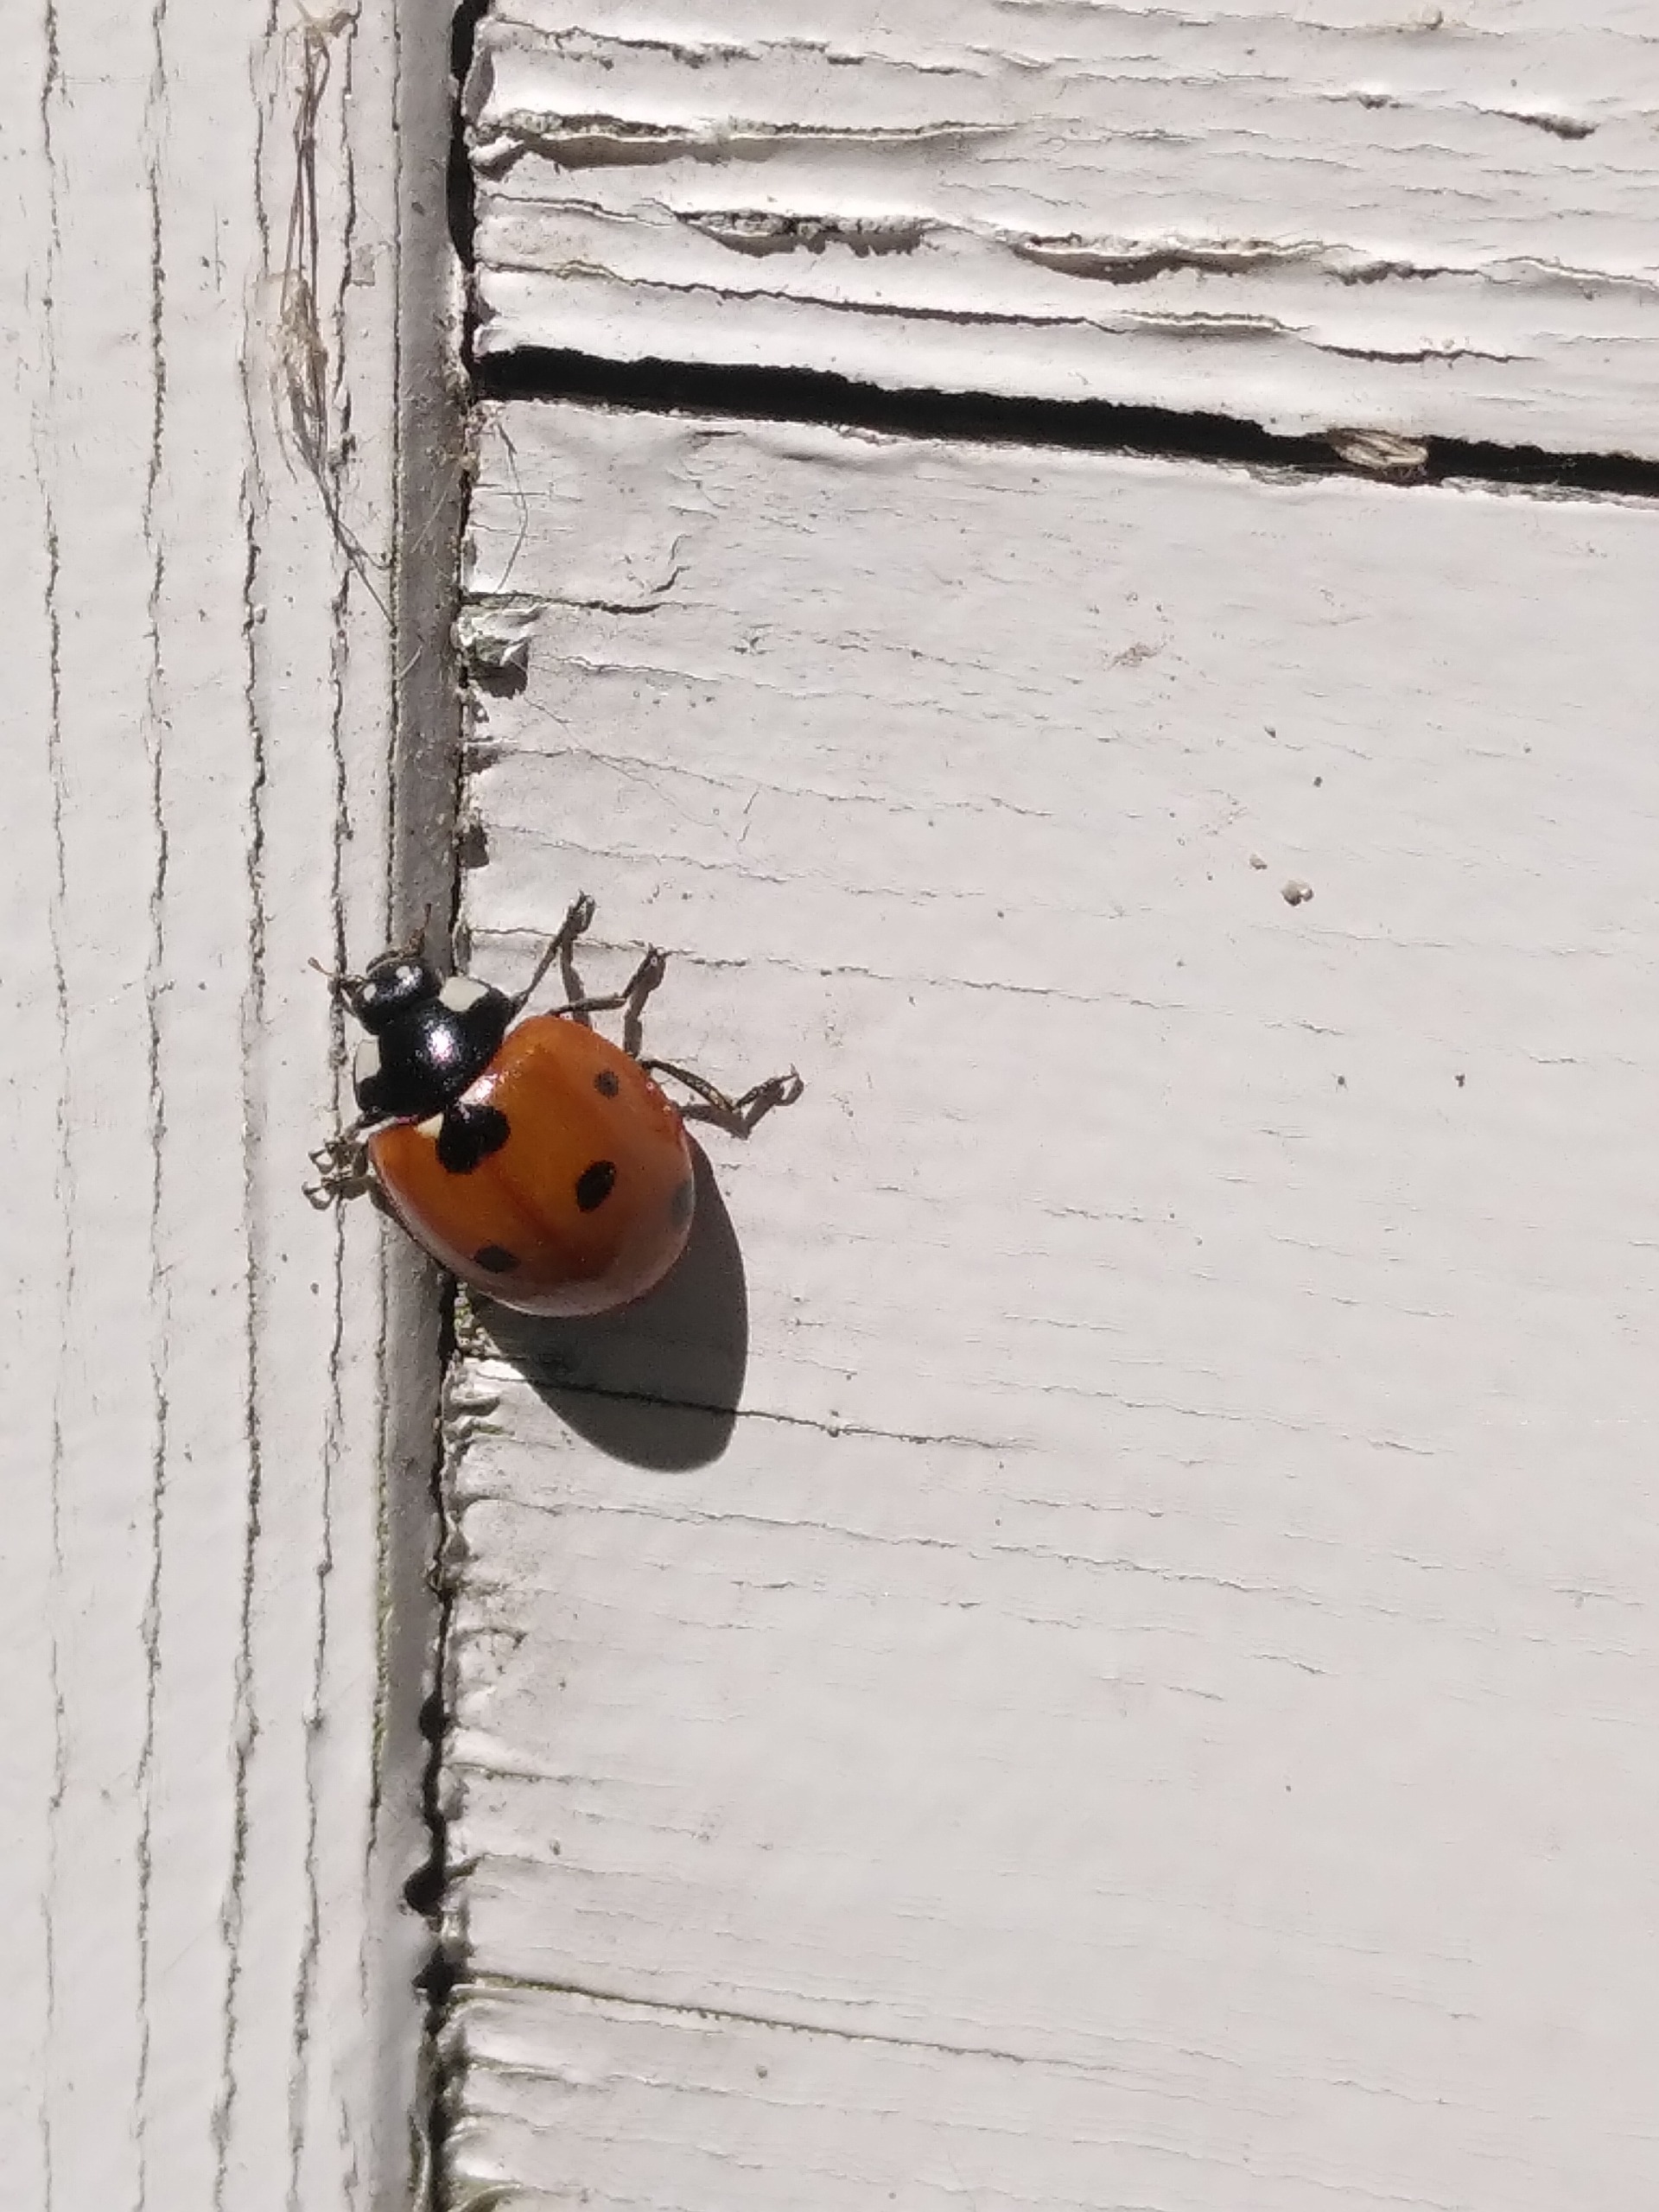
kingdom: Animalia
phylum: Arthropoda
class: Insecta
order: Coleoptera
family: Coccinellidae
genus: Coccinella
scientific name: Coccinella septempunctata
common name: Syvplettet mariehøne
